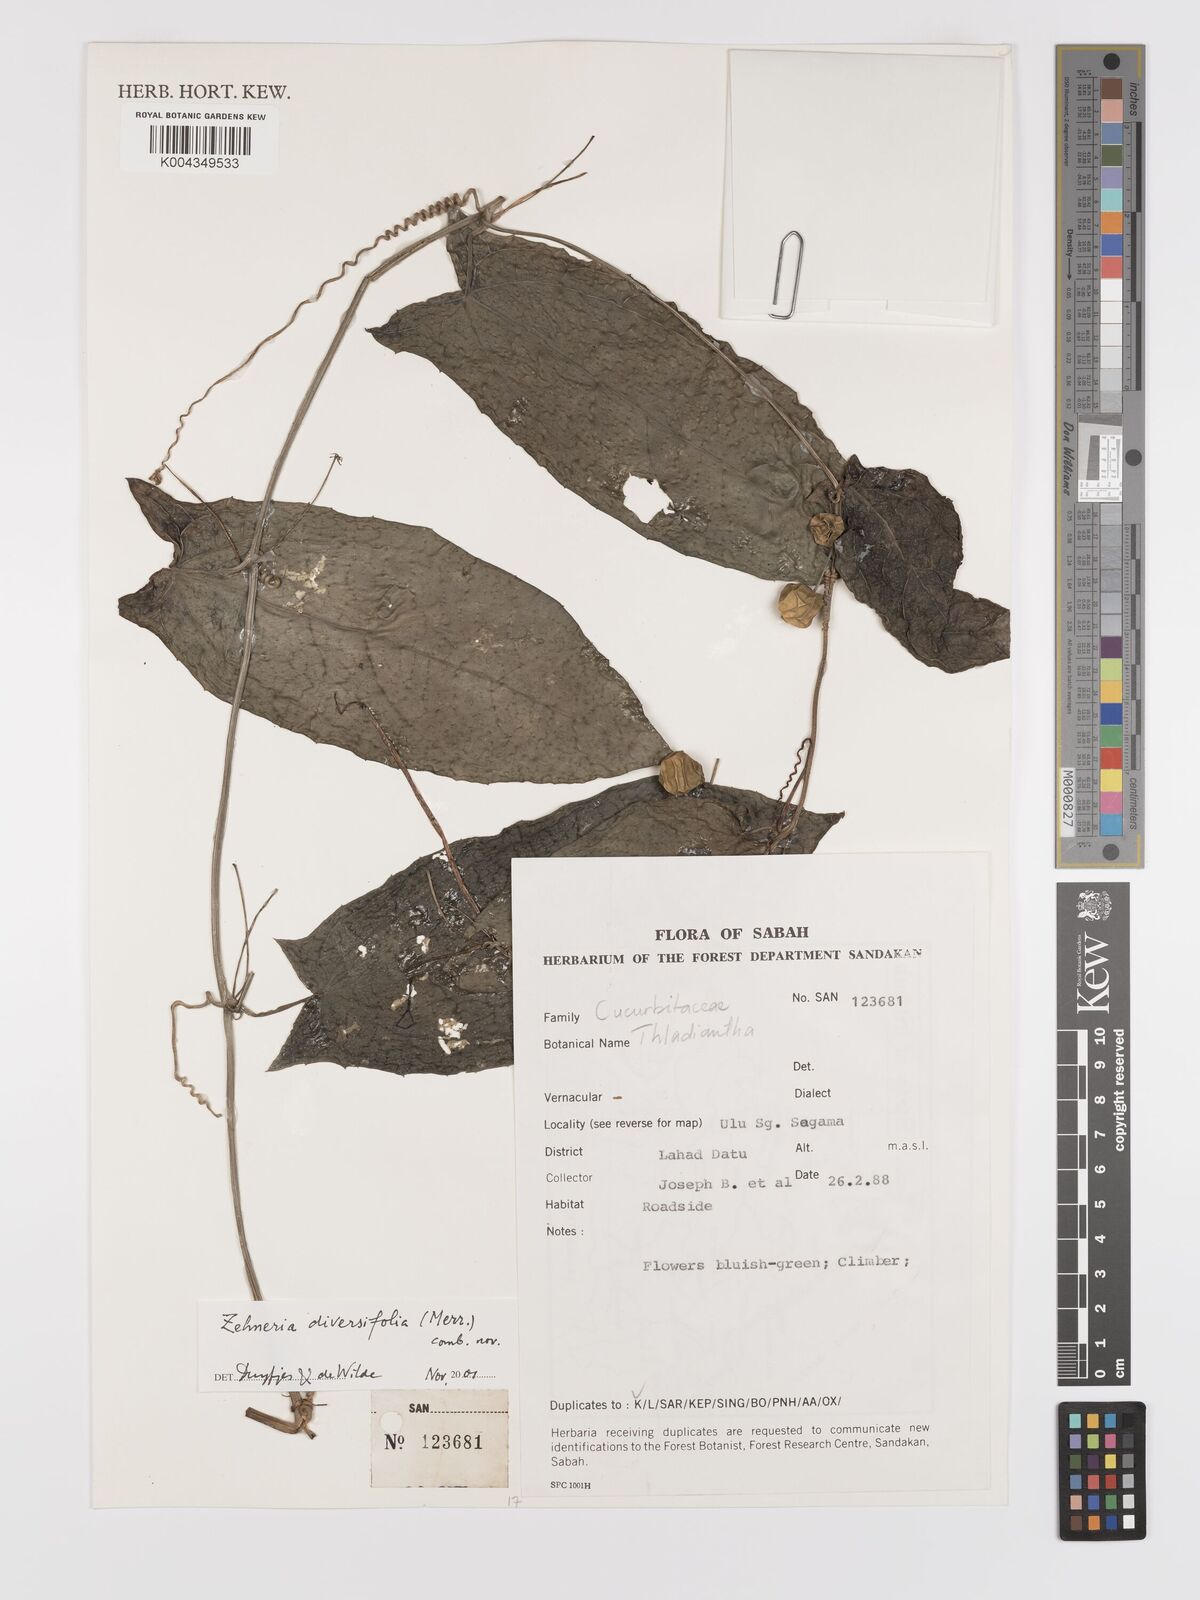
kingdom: Plantae
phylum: Tracheophyta
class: Magnoliopsida
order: Cucurbitales
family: Cucurbitaceae
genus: Zehneria
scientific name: Zehneria
